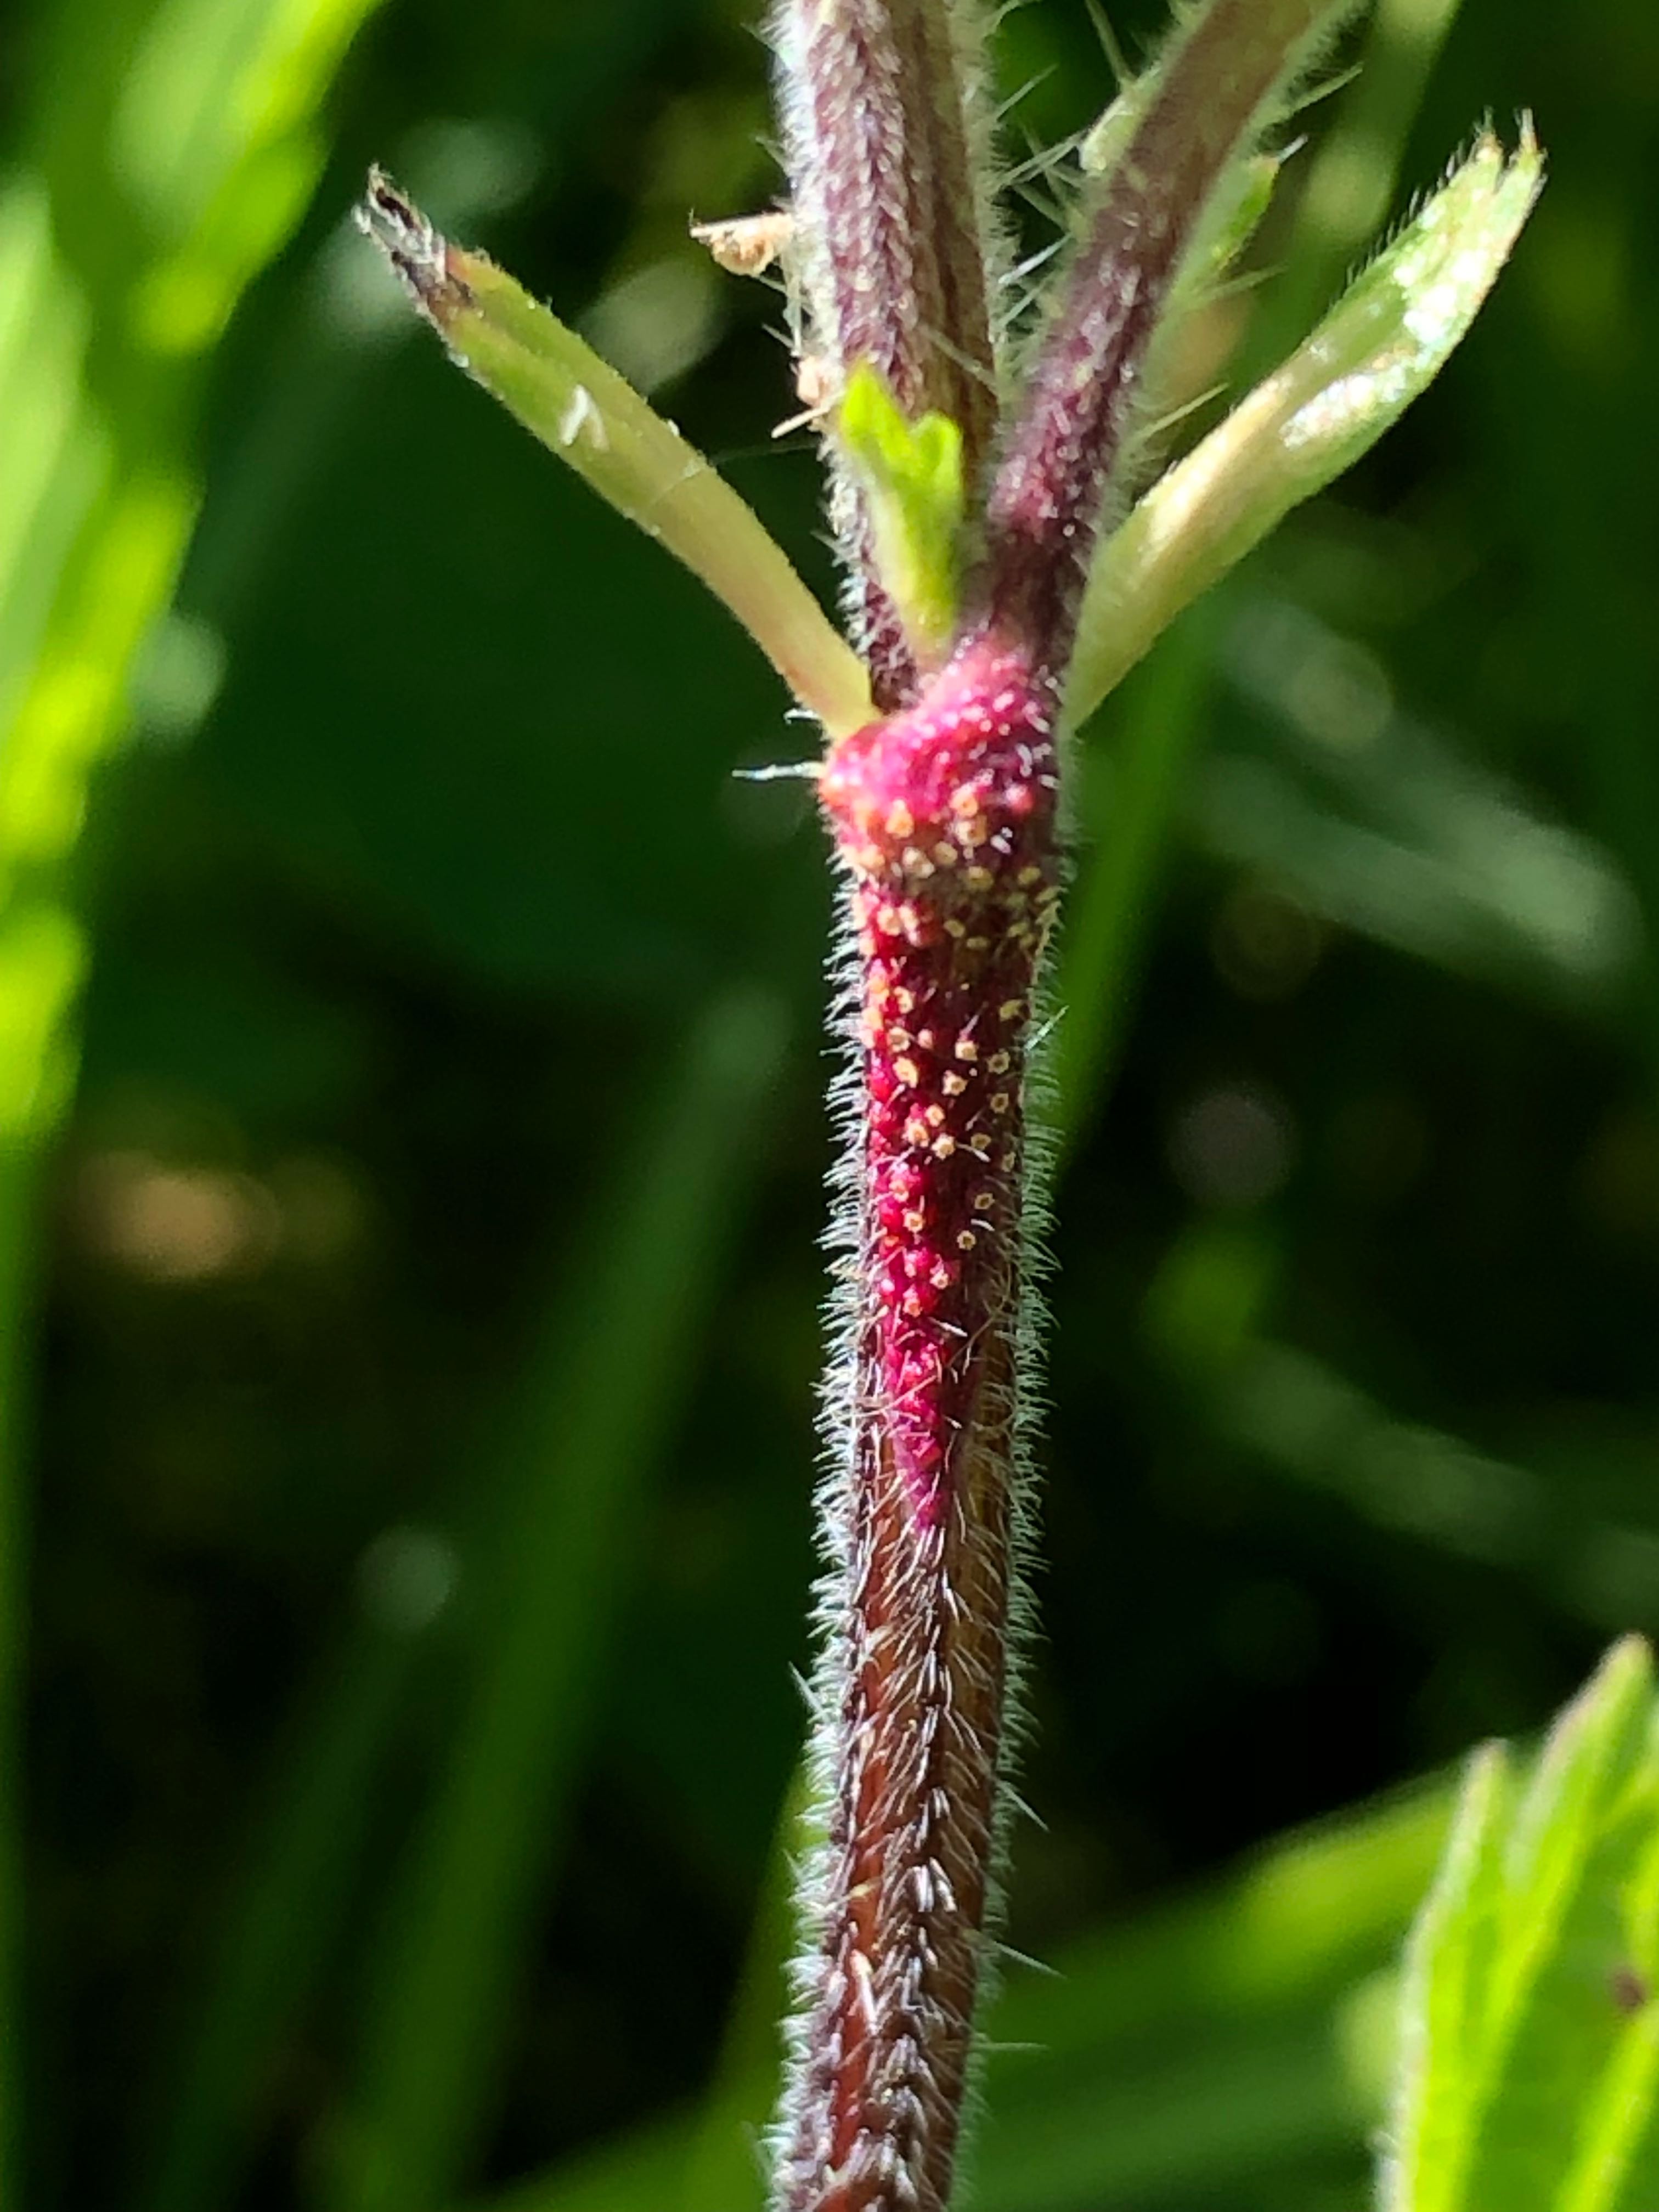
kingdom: Fungi
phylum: Basidiomycota
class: Pucciniomycetes
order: Pucciniales
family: Pucciniaceae
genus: Puccinia
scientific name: Puccinia urticata
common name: nældegalle-tvecellerust
